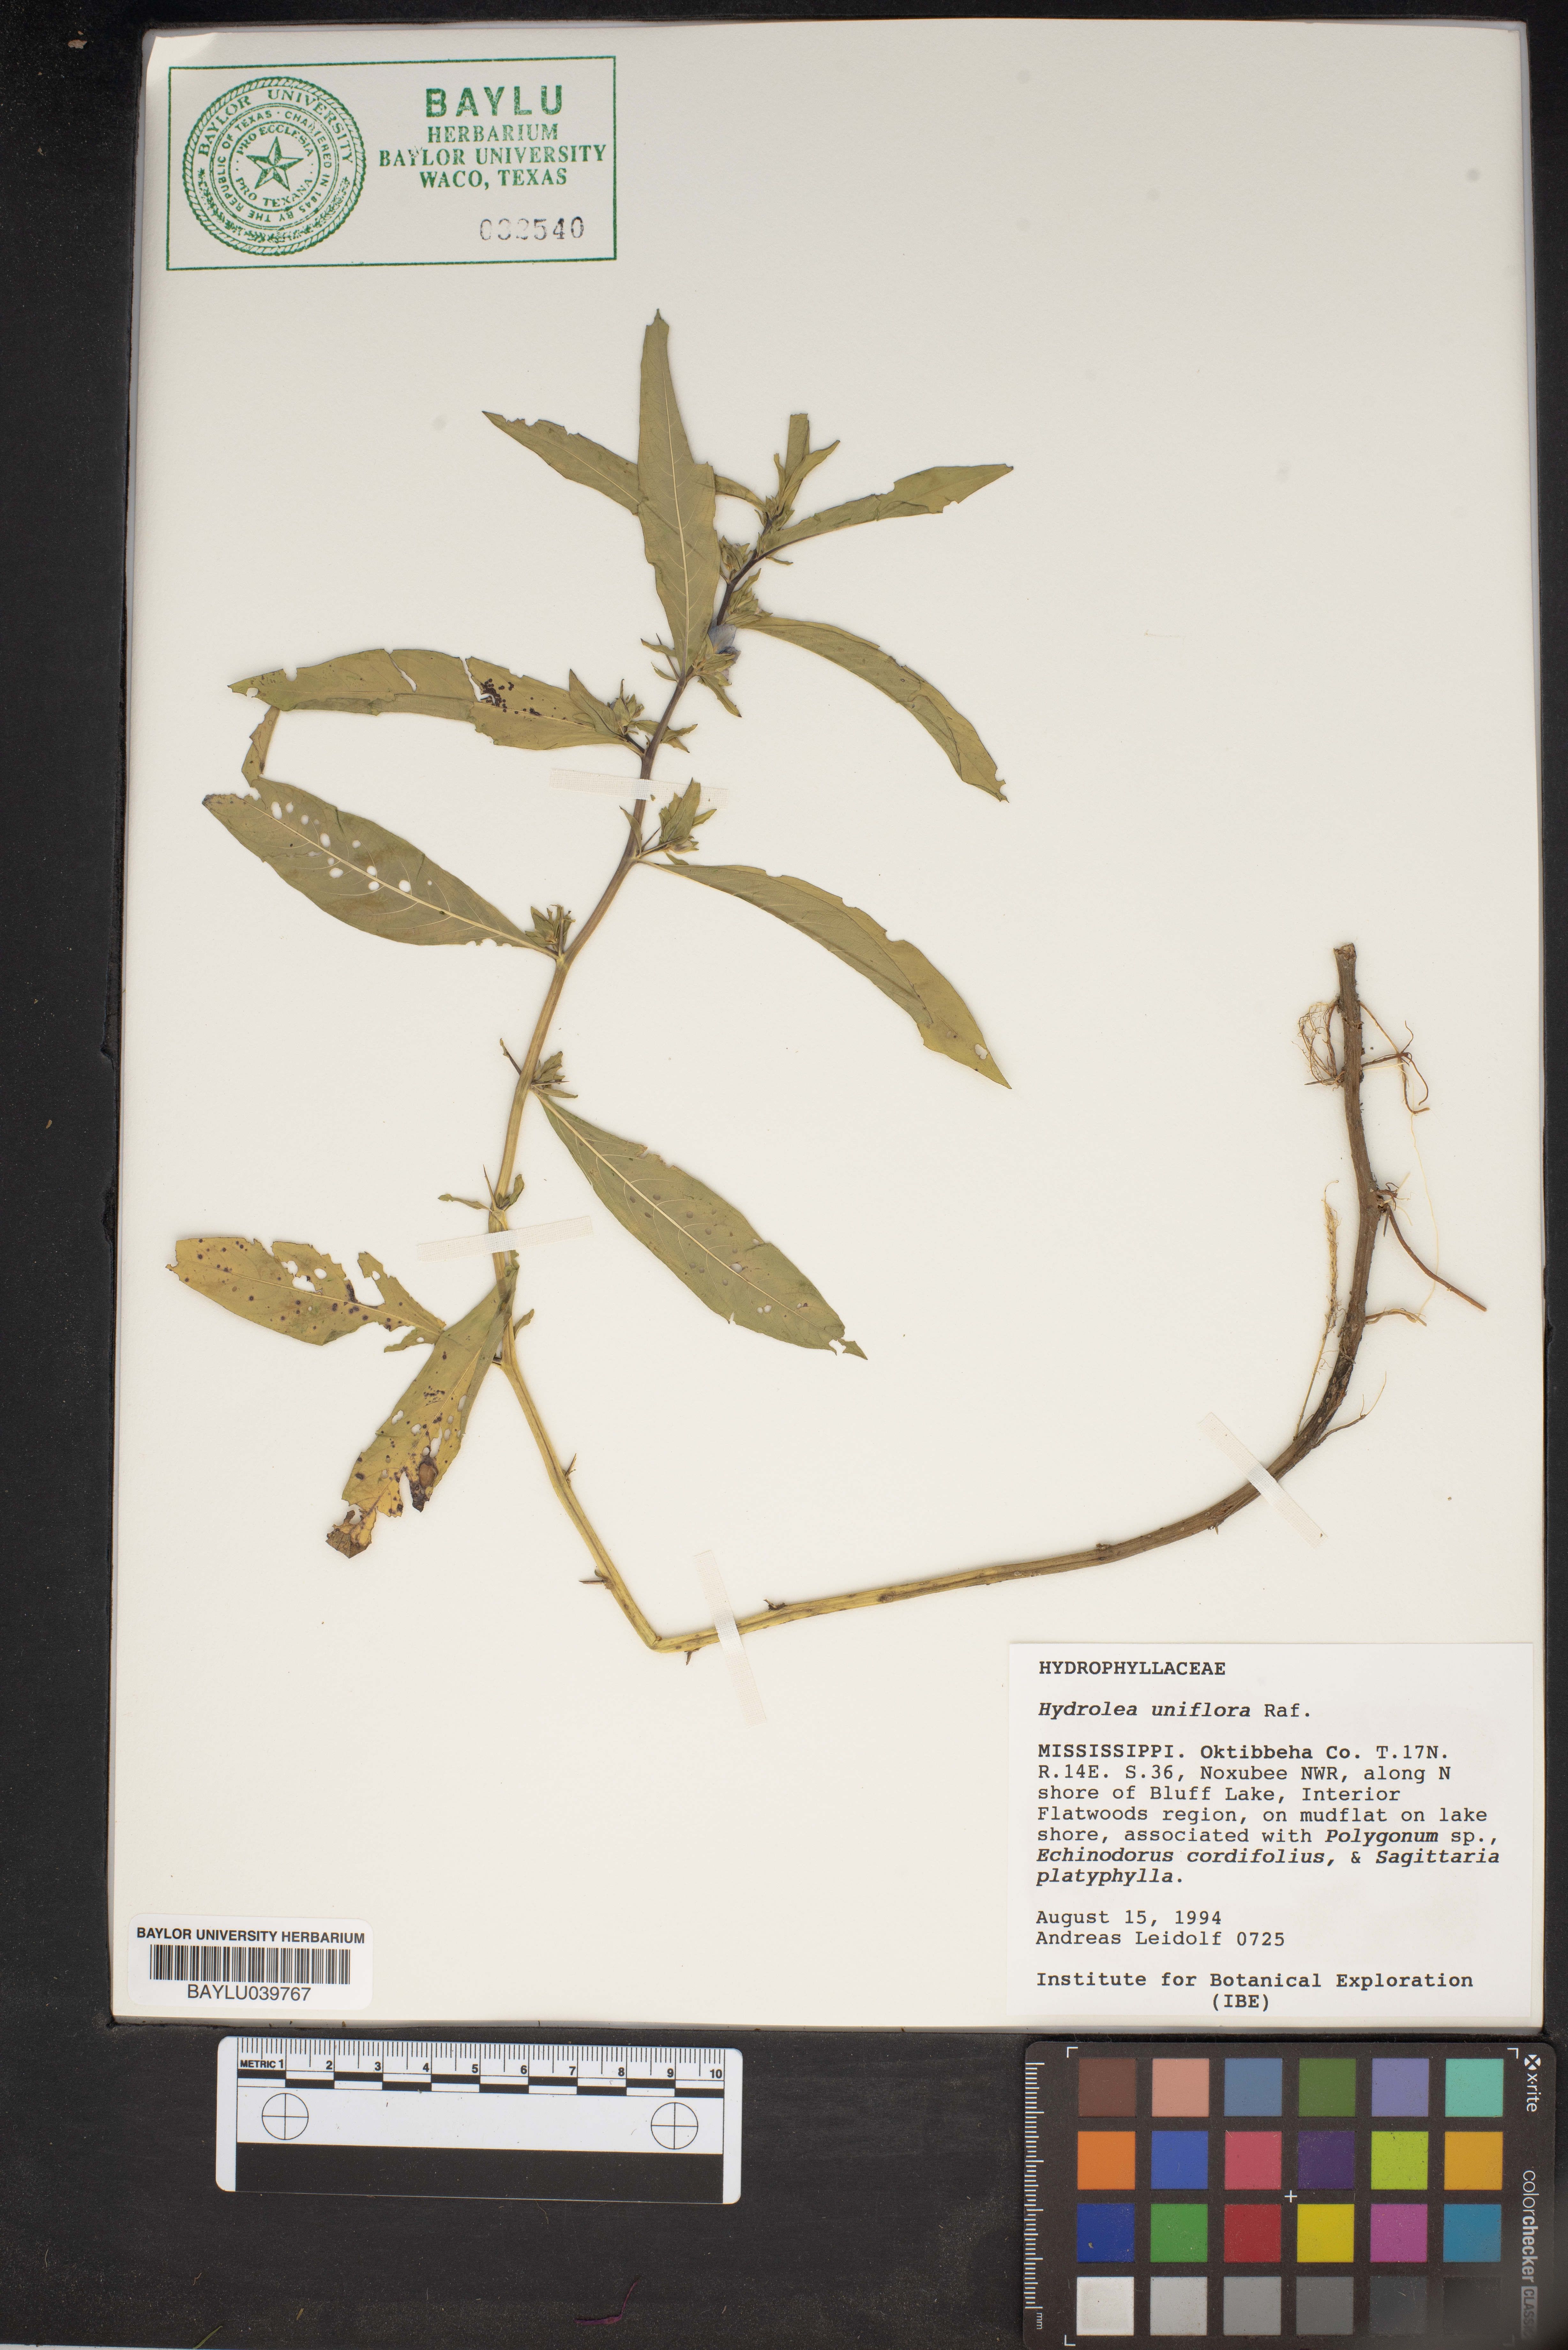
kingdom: Plantae
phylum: Tracheophyta
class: Magnoliopsida
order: Solanales
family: Hydroleaceae
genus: Hydrolea
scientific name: Hydrolea uniflora
